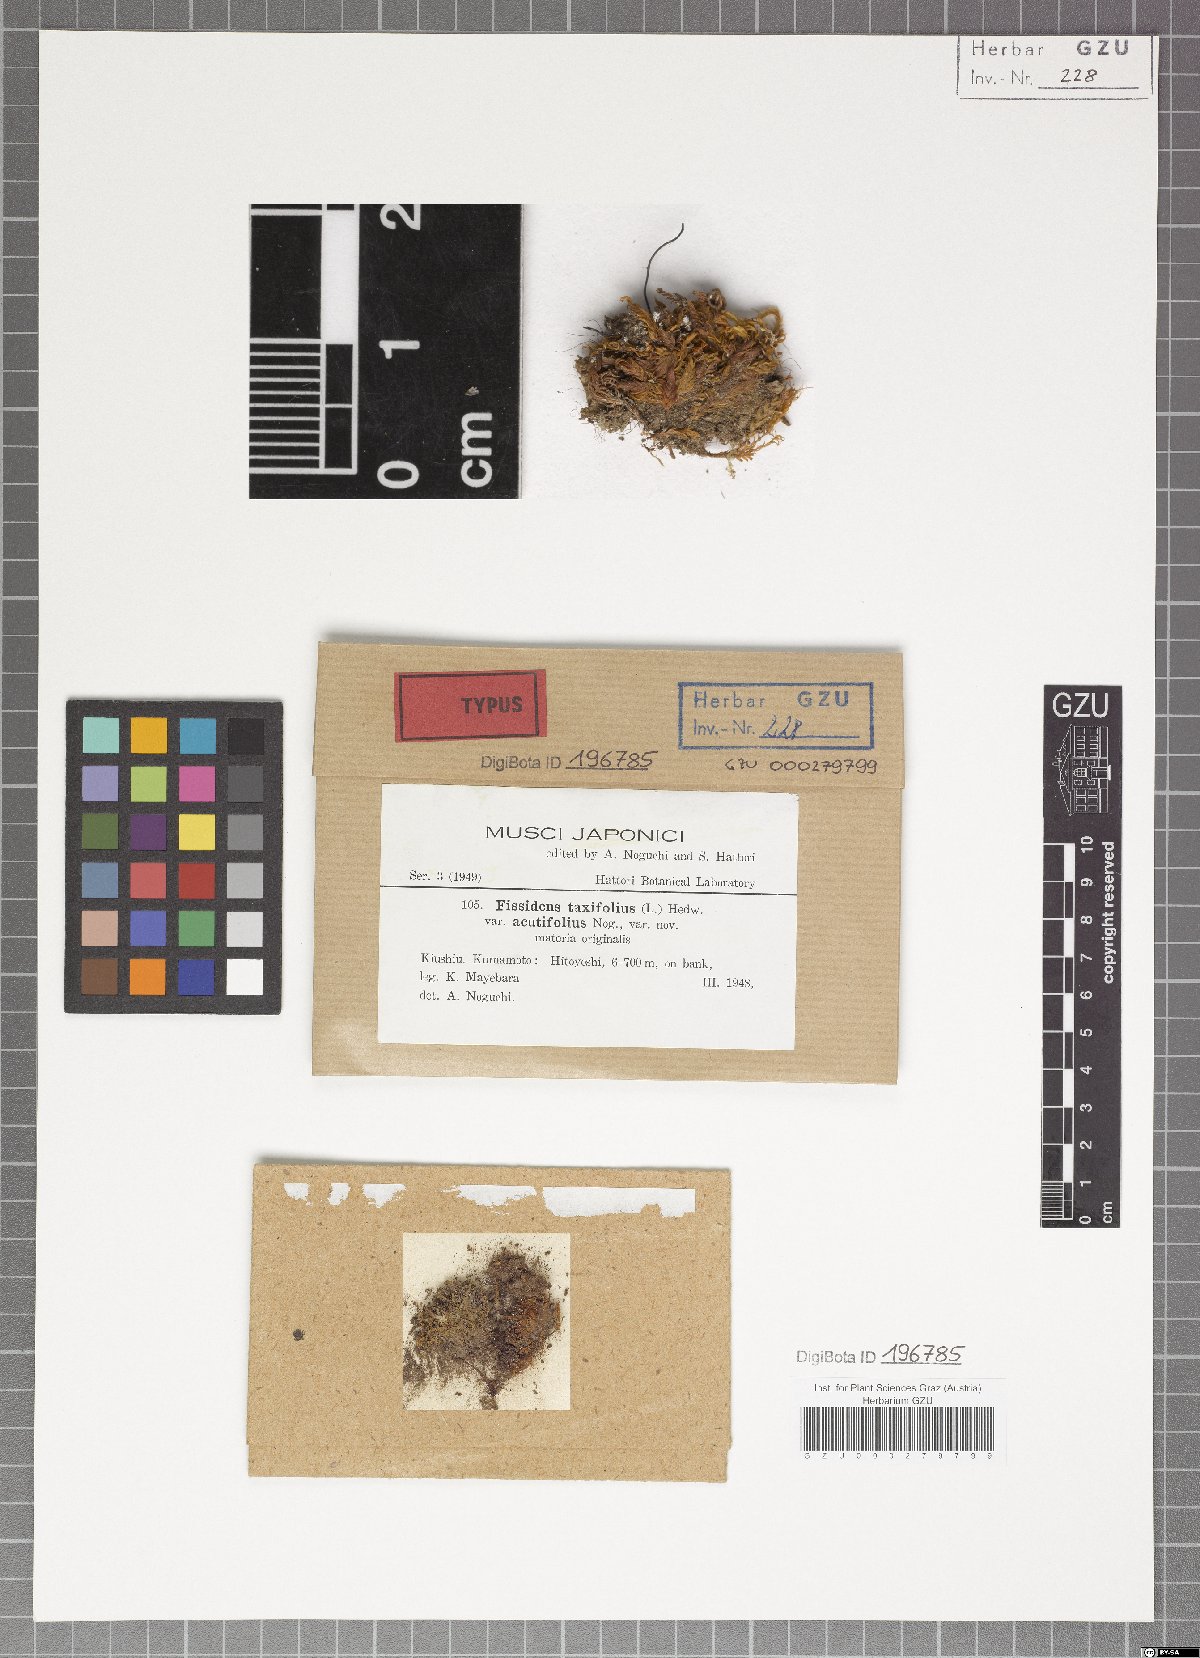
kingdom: Plantae
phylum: Bryophyta
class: Bryopsida
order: Dicranales
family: Fissidentaceae
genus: Fissidens
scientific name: Fissidens taxifolius
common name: Yew-leaved pocket moss
